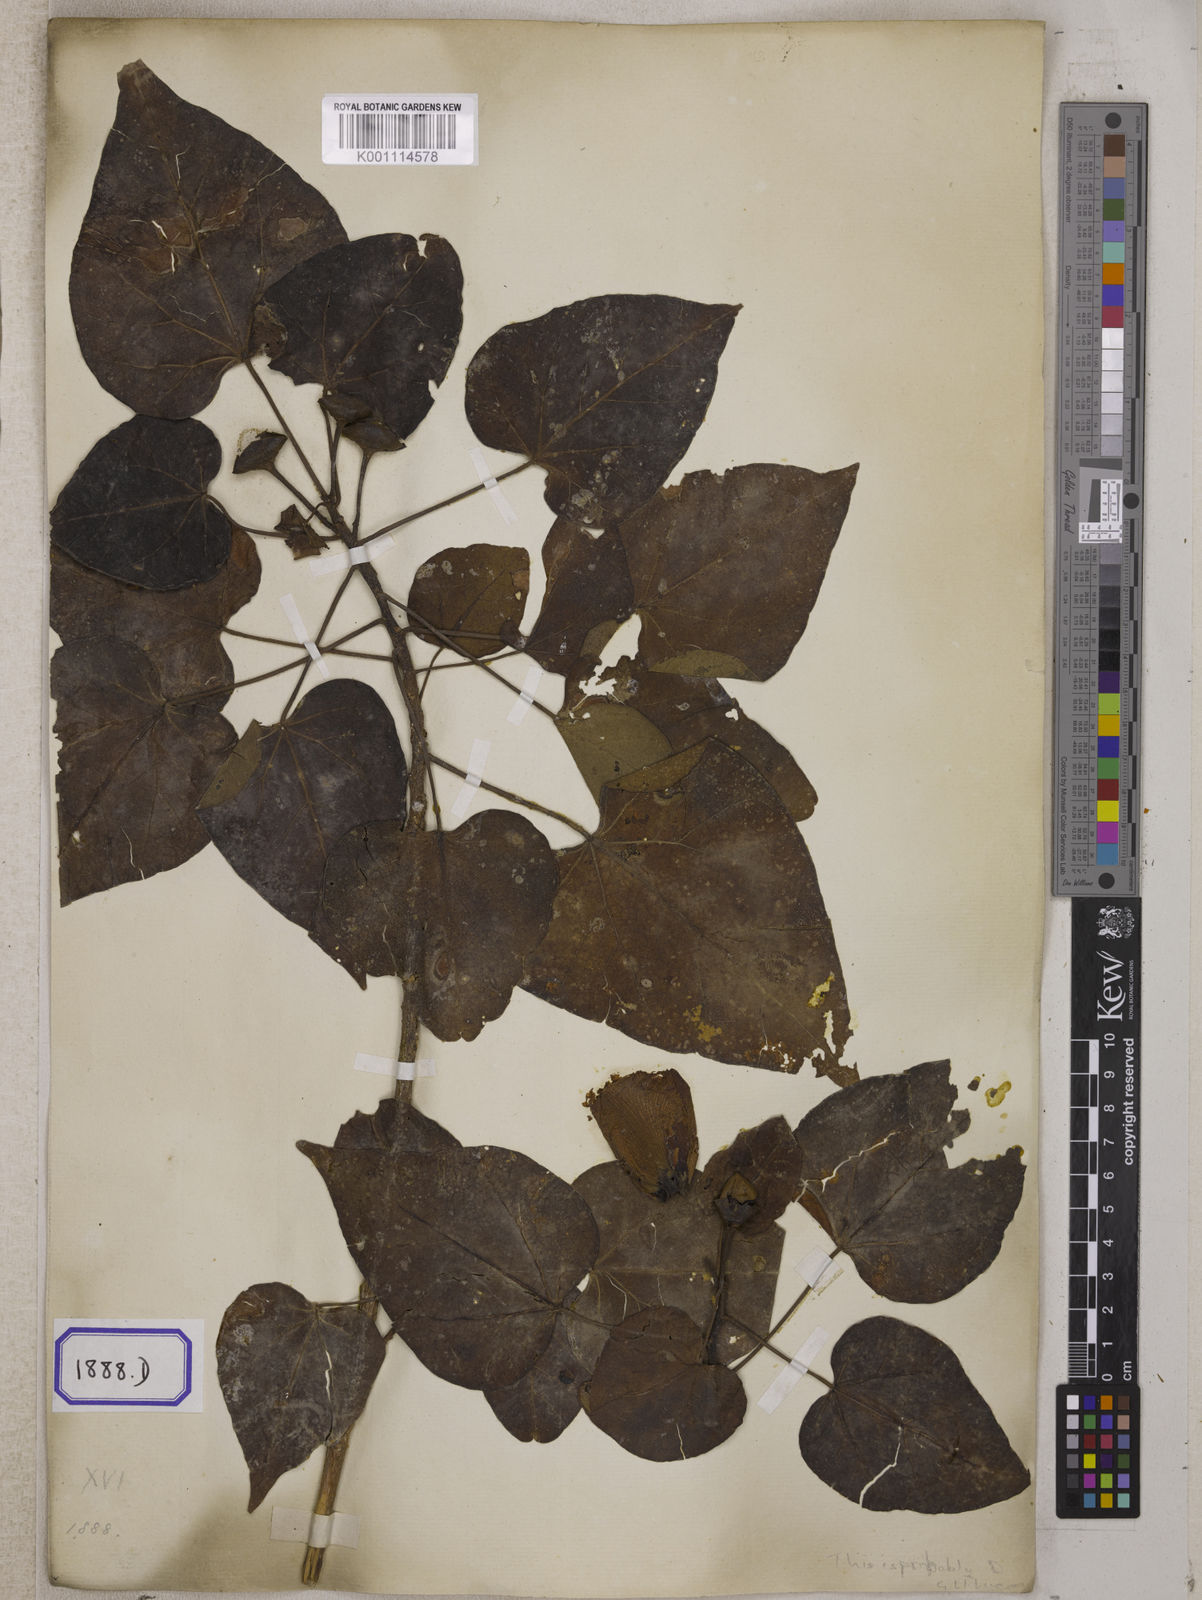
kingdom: Plantae
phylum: Tracheophyta
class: Magnoliopsida
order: Malvales
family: Malvaceae
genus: Thespesia
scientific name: Thespesia populnea
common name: Seaside mahoe
